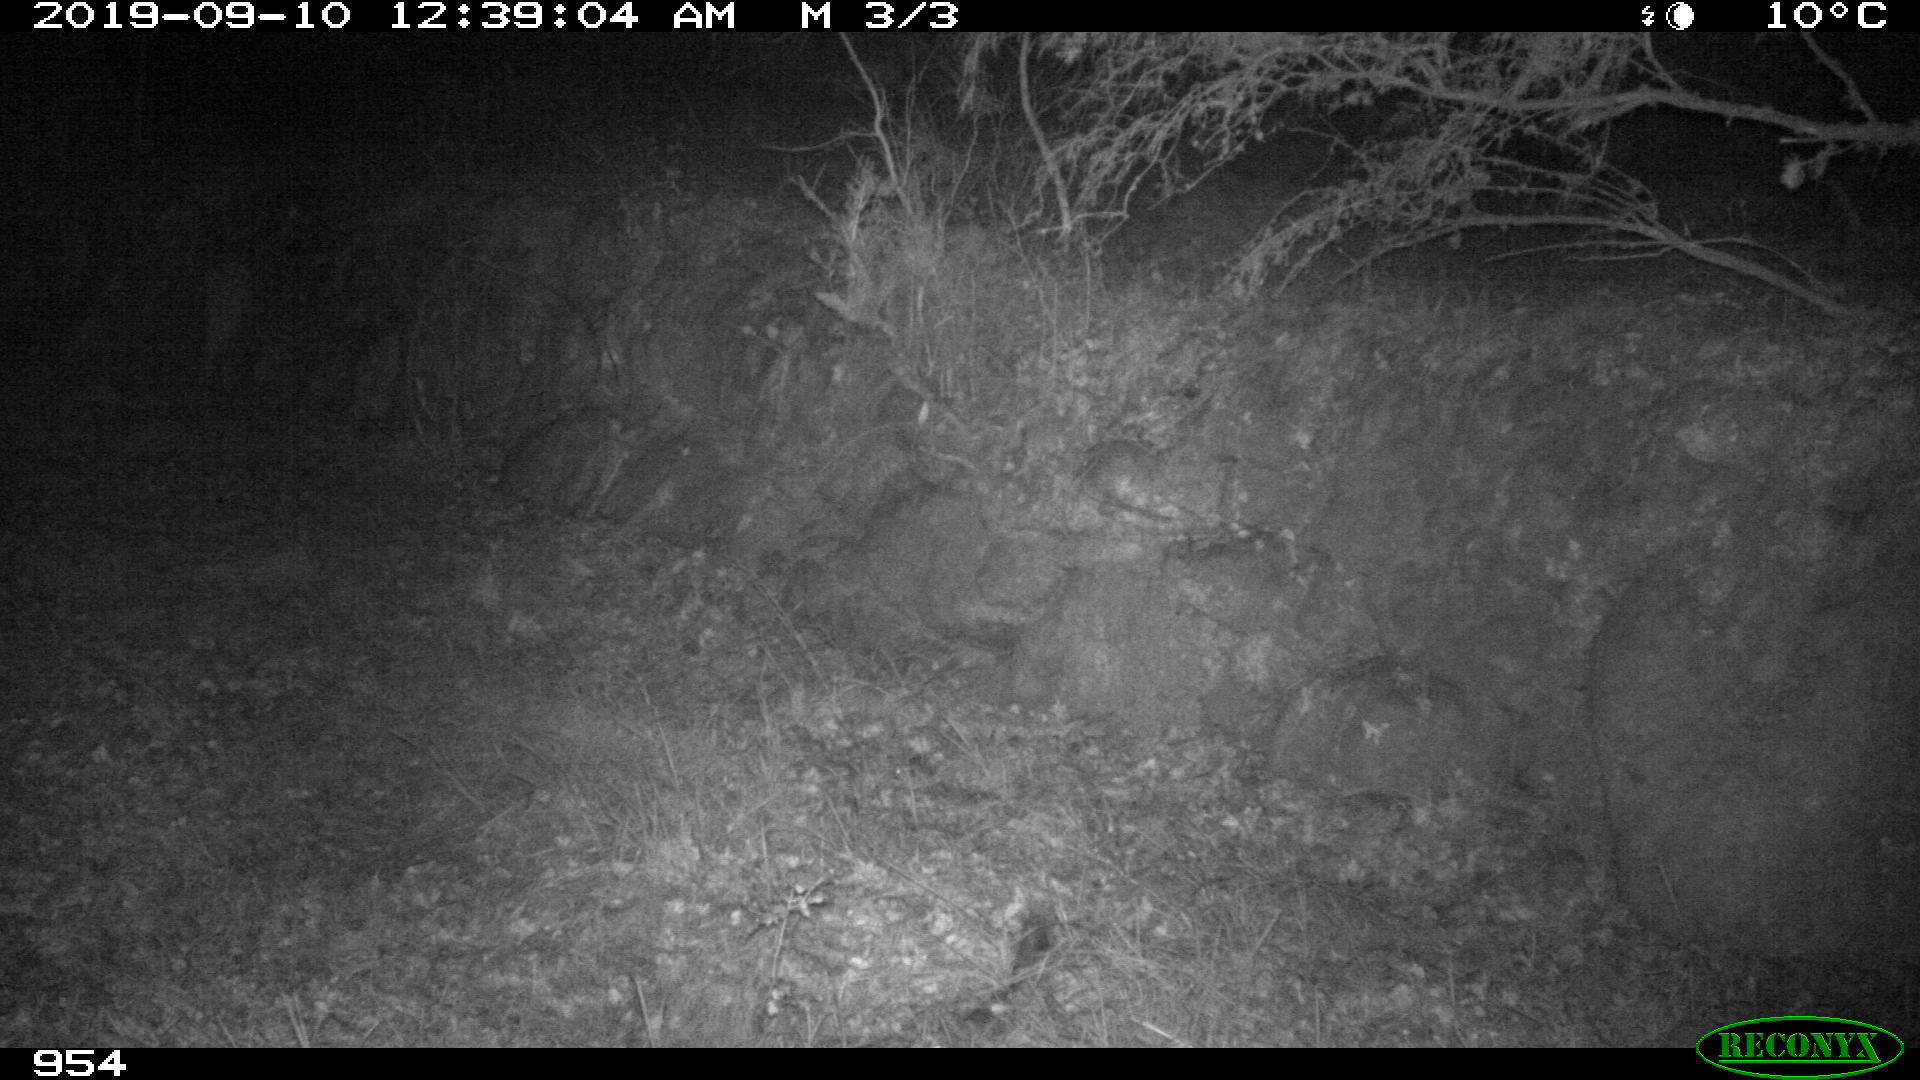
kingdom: Animalia
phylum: Chordata
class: Mammalia
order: Carnivora
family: Canidae
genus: Canis
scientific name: Canis lupus
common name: Gray wolf
